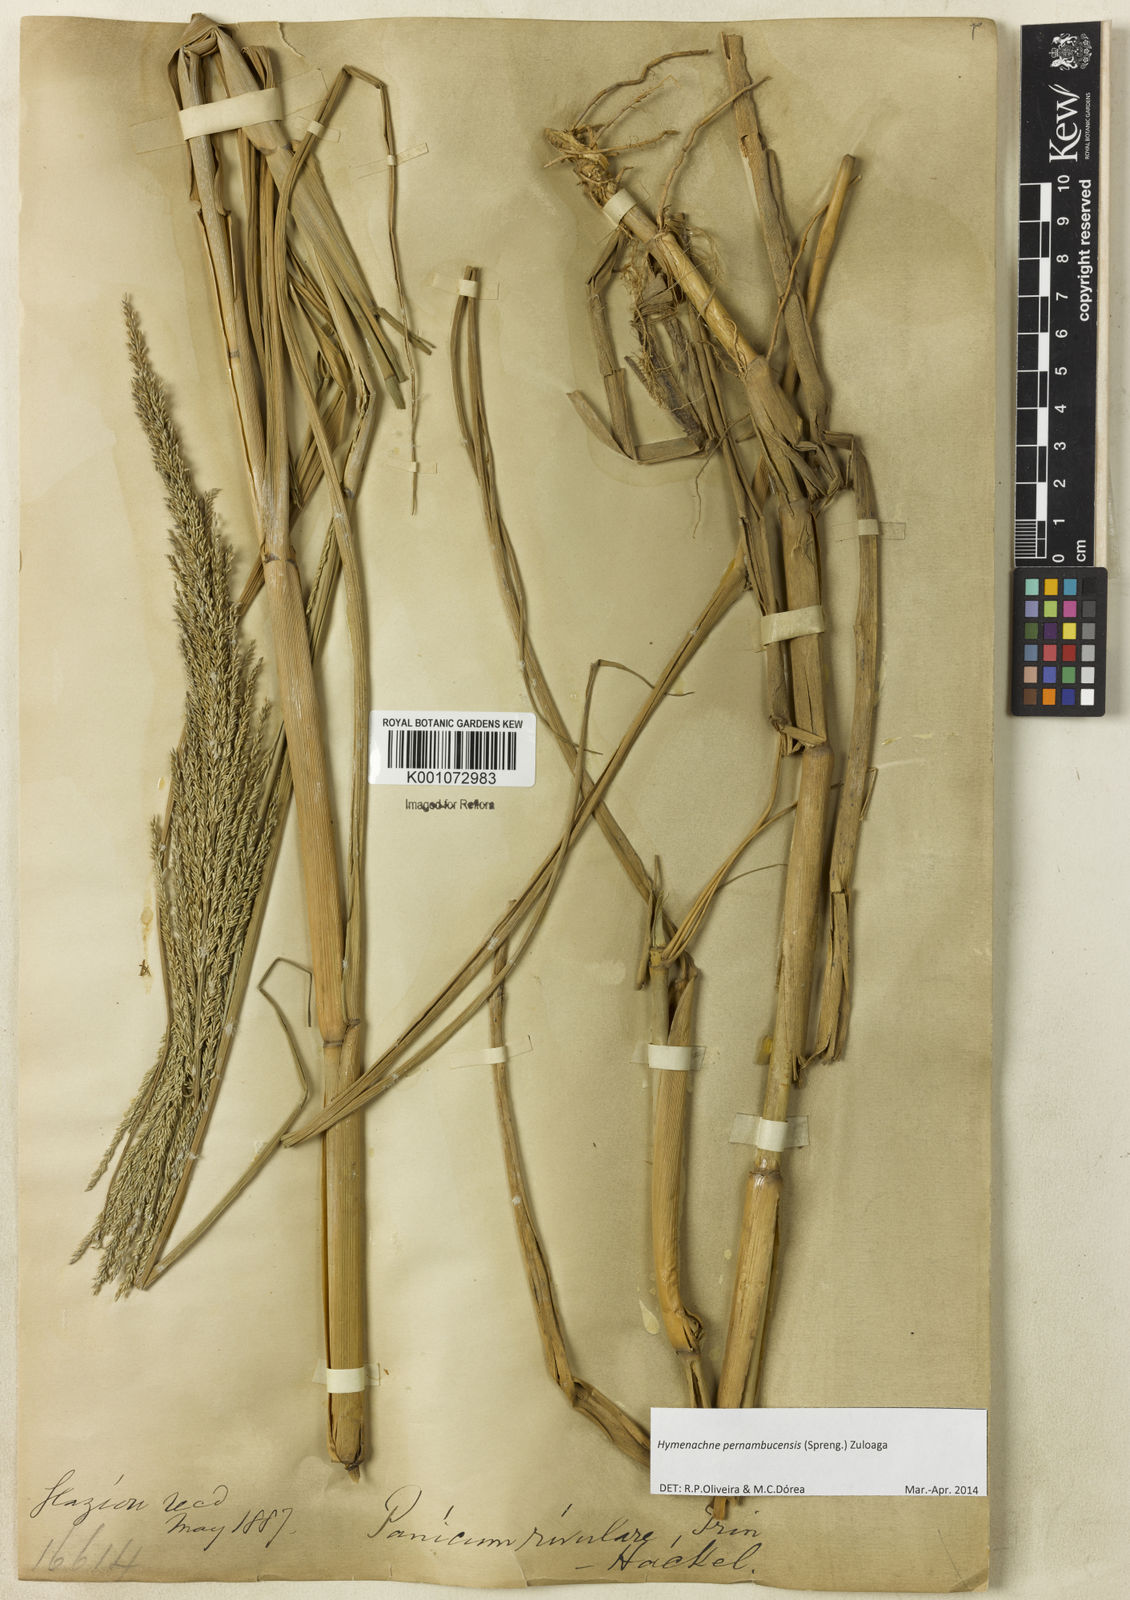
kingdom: Plantae
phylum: Tracheophyta
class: Liliopsida
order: Poales
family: Poaceae
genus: Hymenachne
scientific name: Hymenachne pernambucensis
